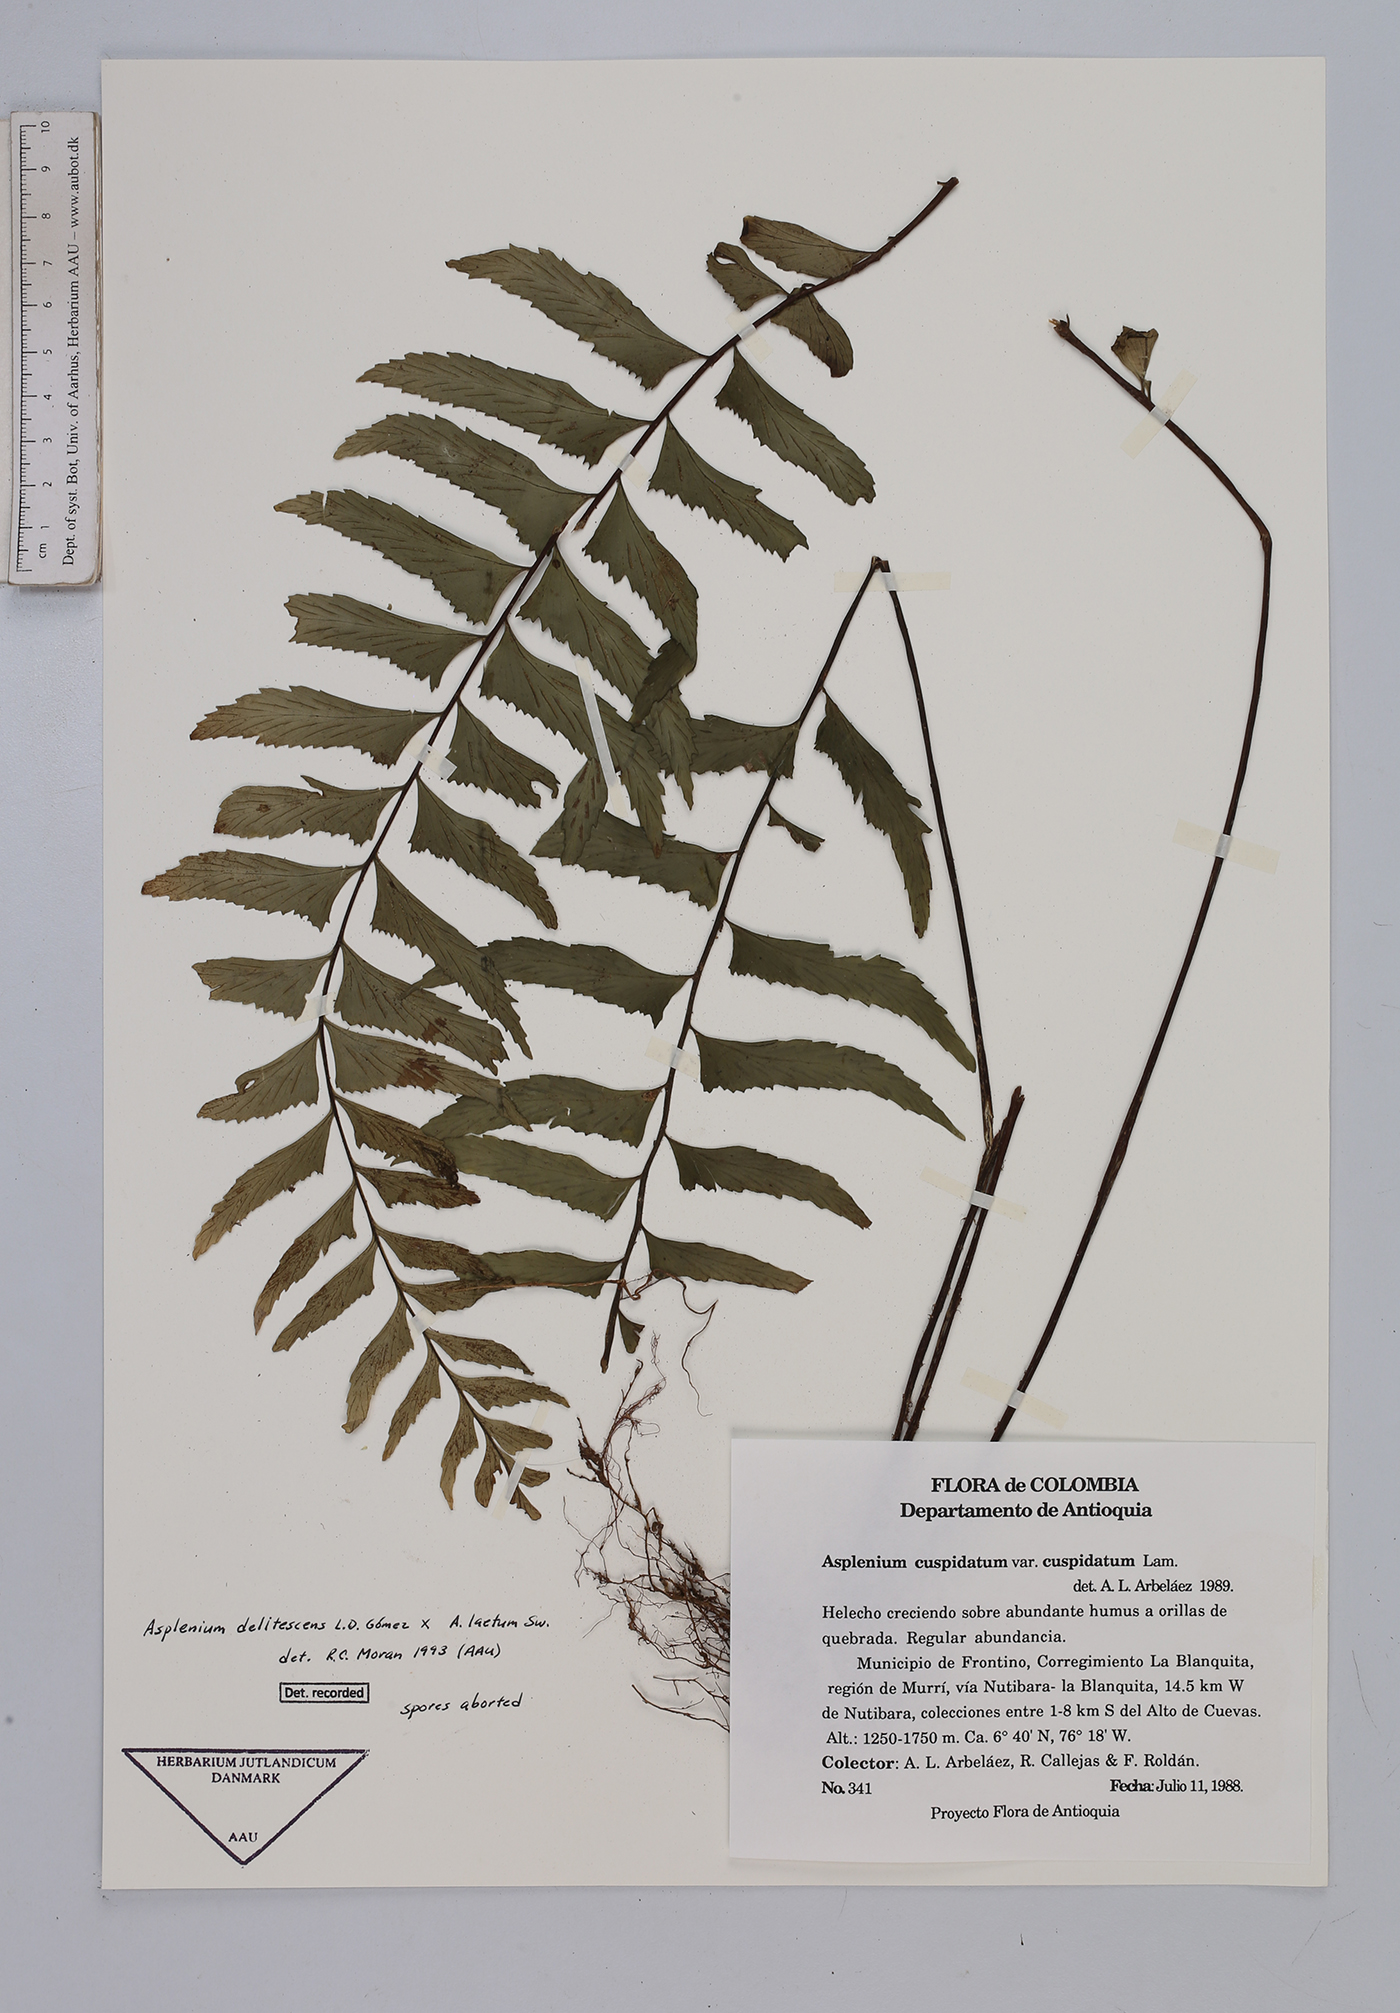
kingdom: Plantae
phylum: Tracheophyta
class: Polypodiopsida
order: Polypodiales
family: Aspleniaceae
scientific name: Aspleniaceae
